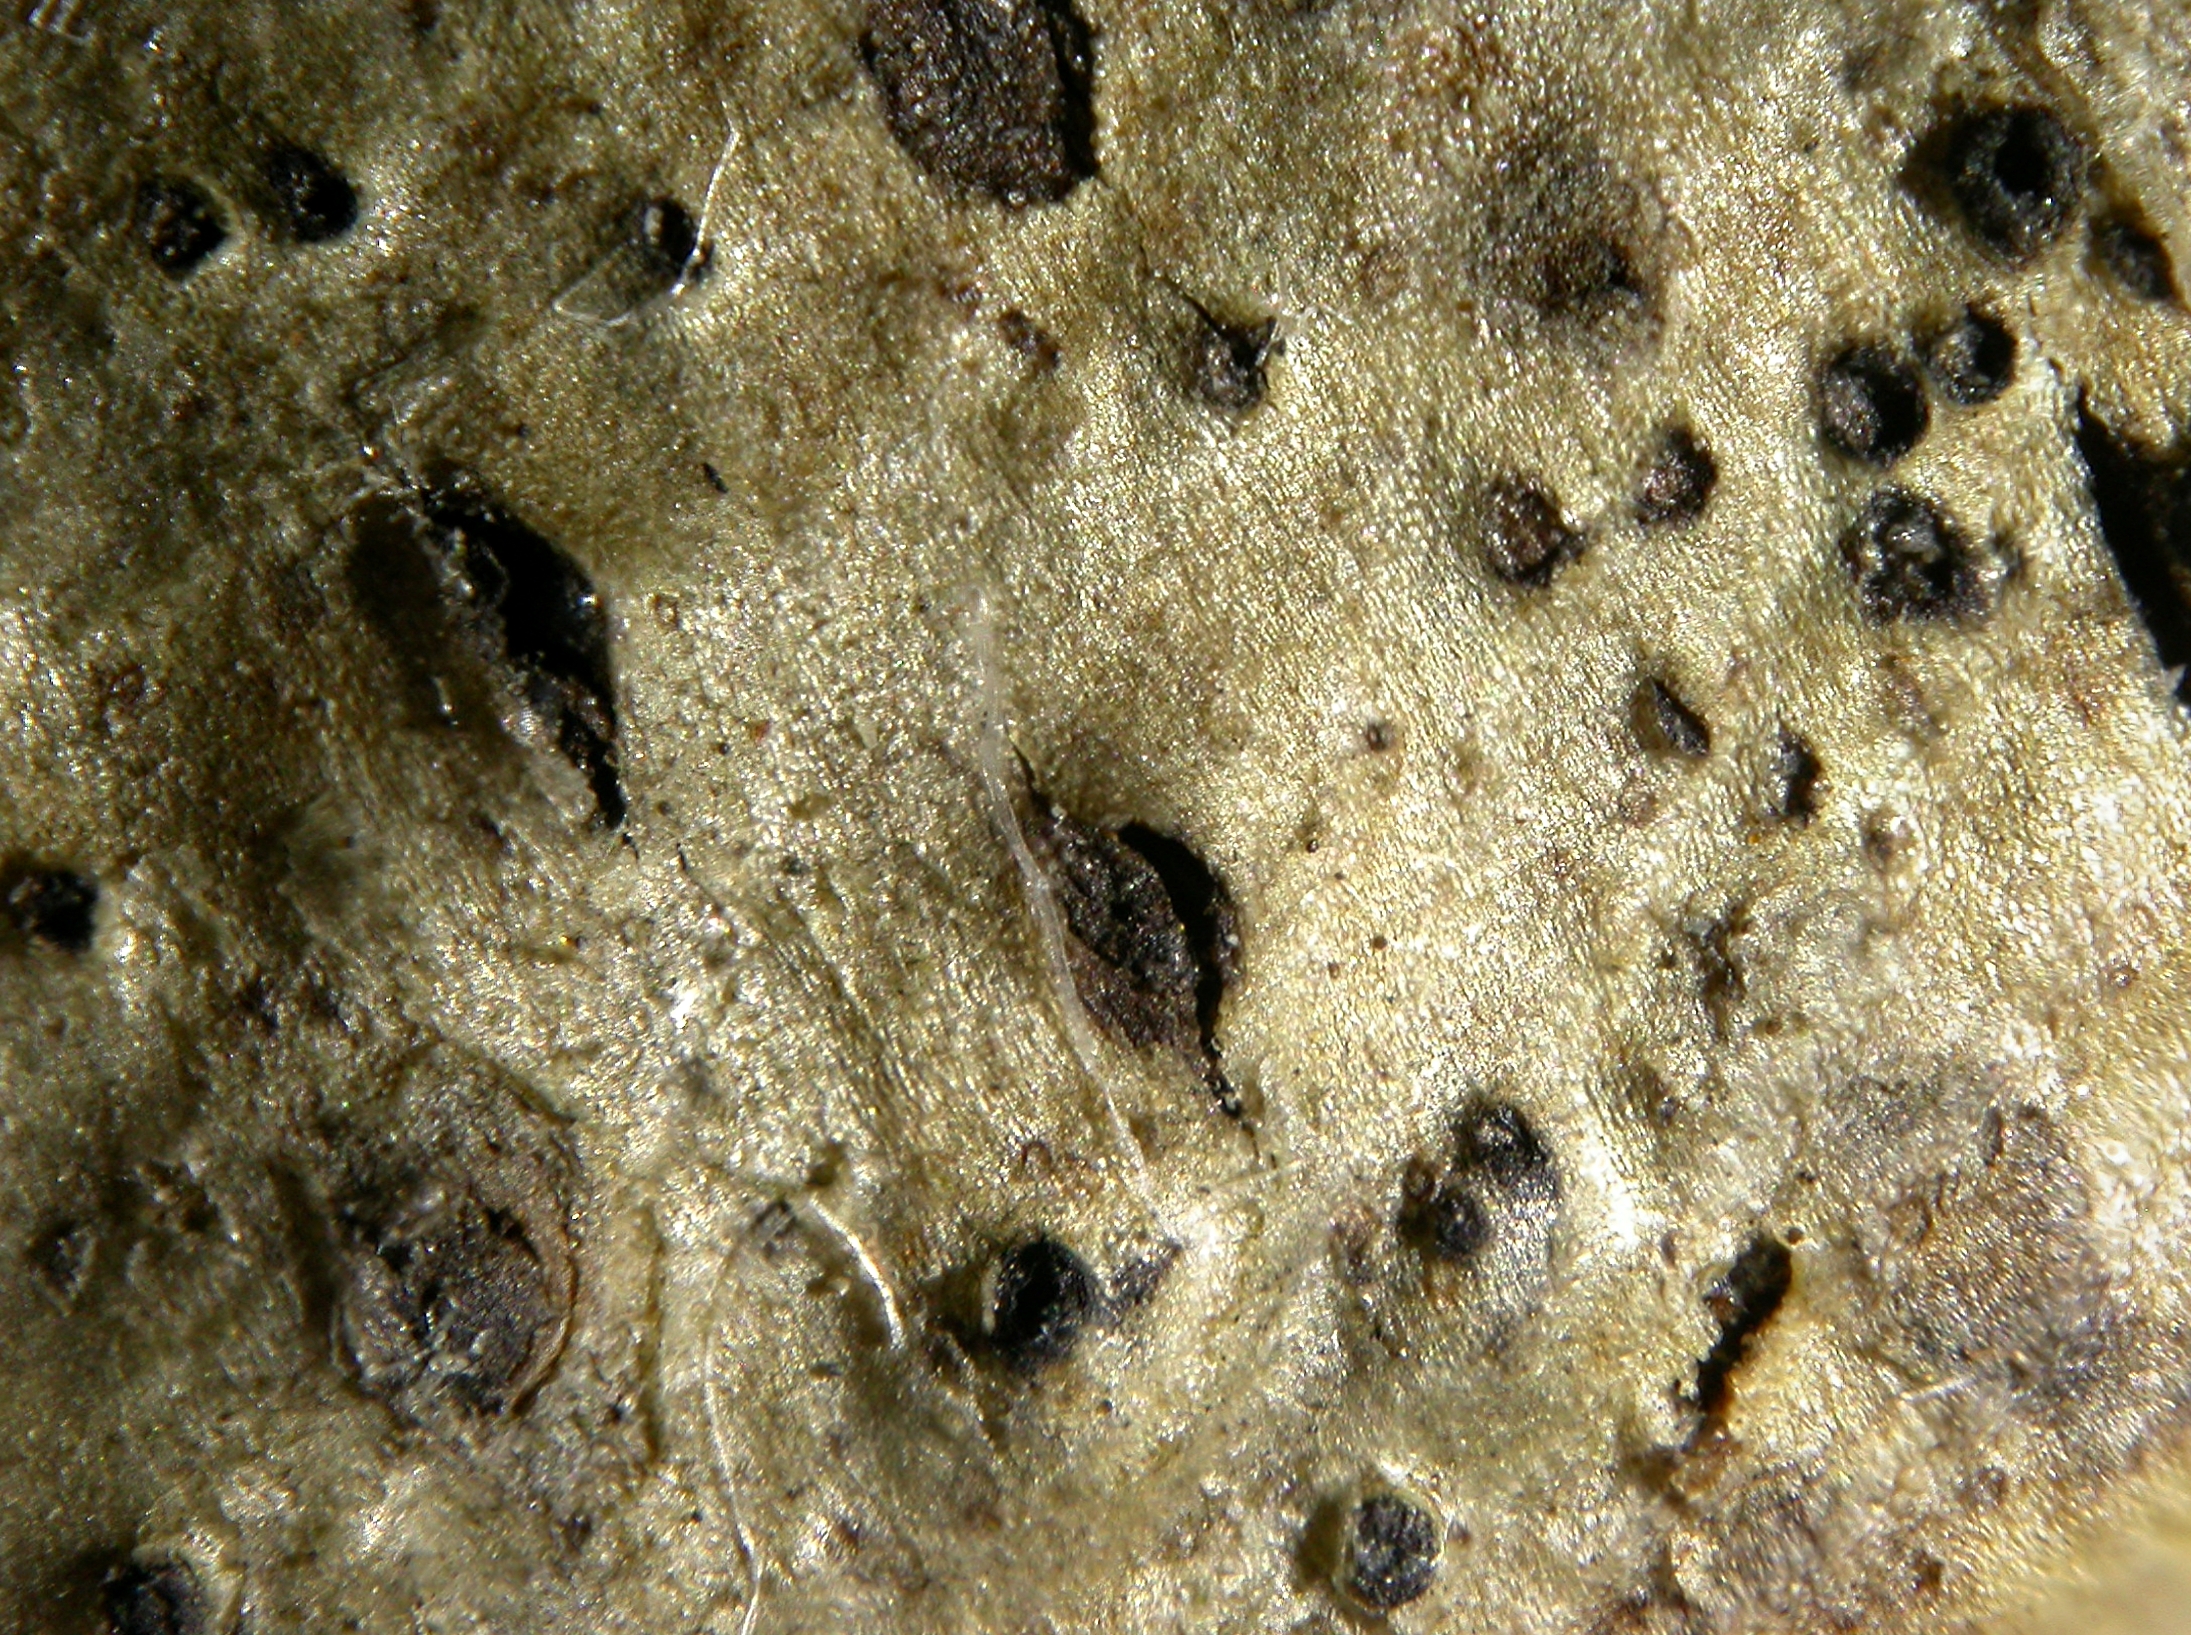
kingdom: Fungi
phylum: Ascomycota
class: Sordariomycetes
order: Xylariales
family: Lopadostomataceae
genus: Lopadostoma
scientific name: Lopadostoma dubium
